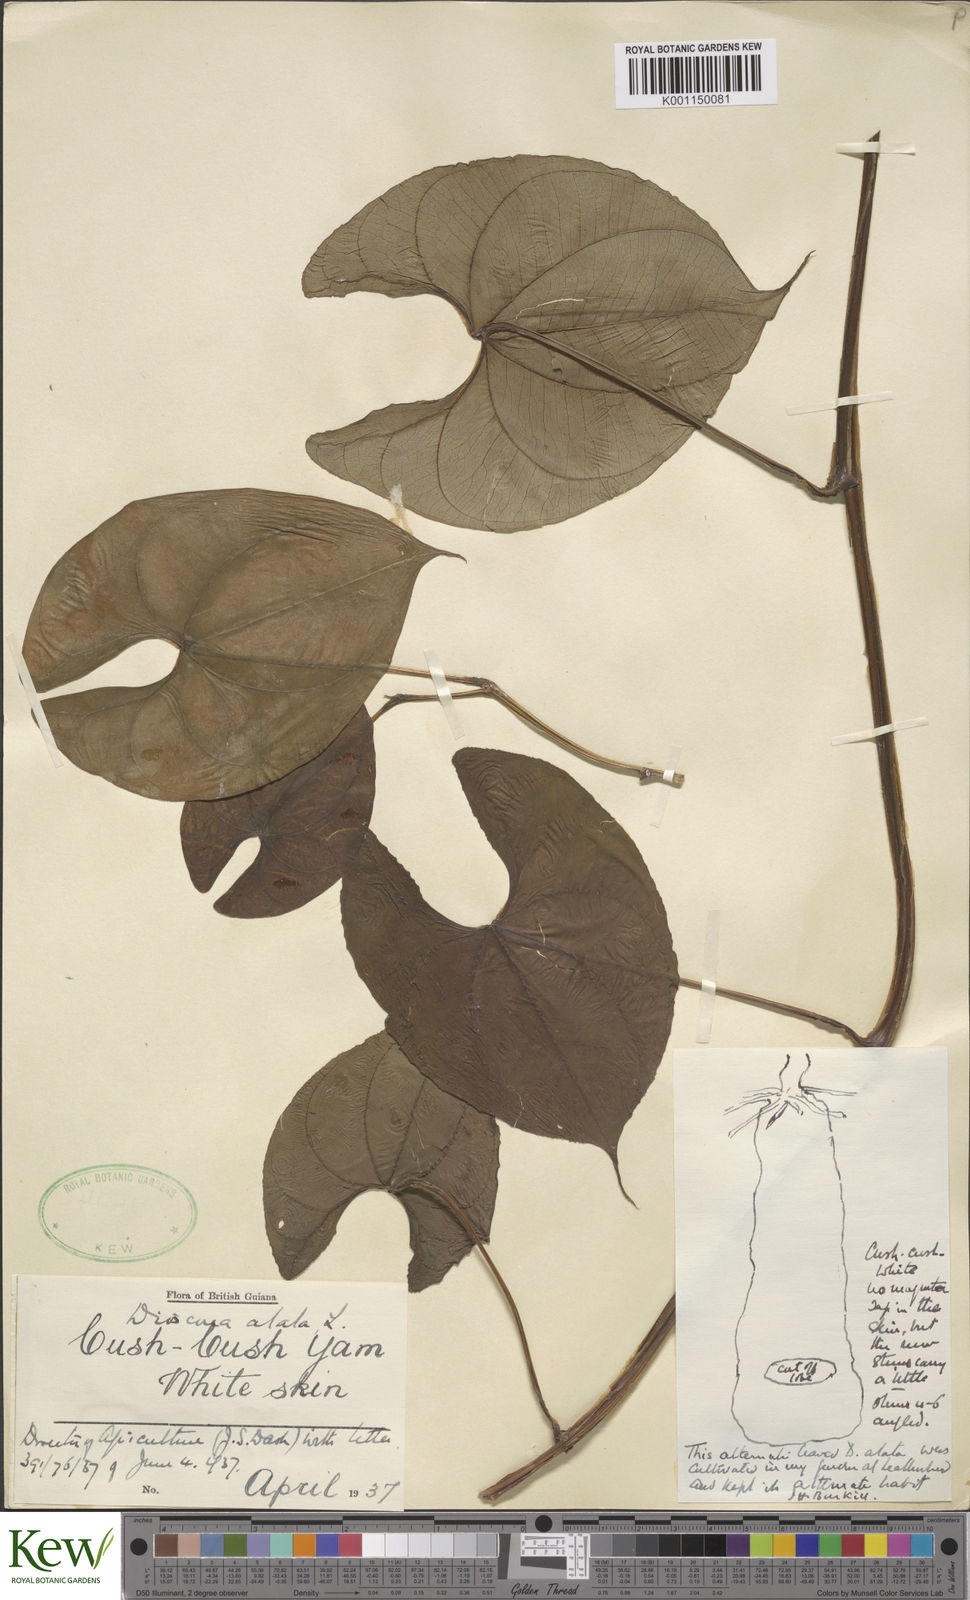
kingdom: Plantae
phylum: Tracheophyta
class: Liliopsida
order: Dioscoreales
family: Dioscoreaceae
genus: Dioscorea
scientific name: Dioscorea alata
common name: Water yam
